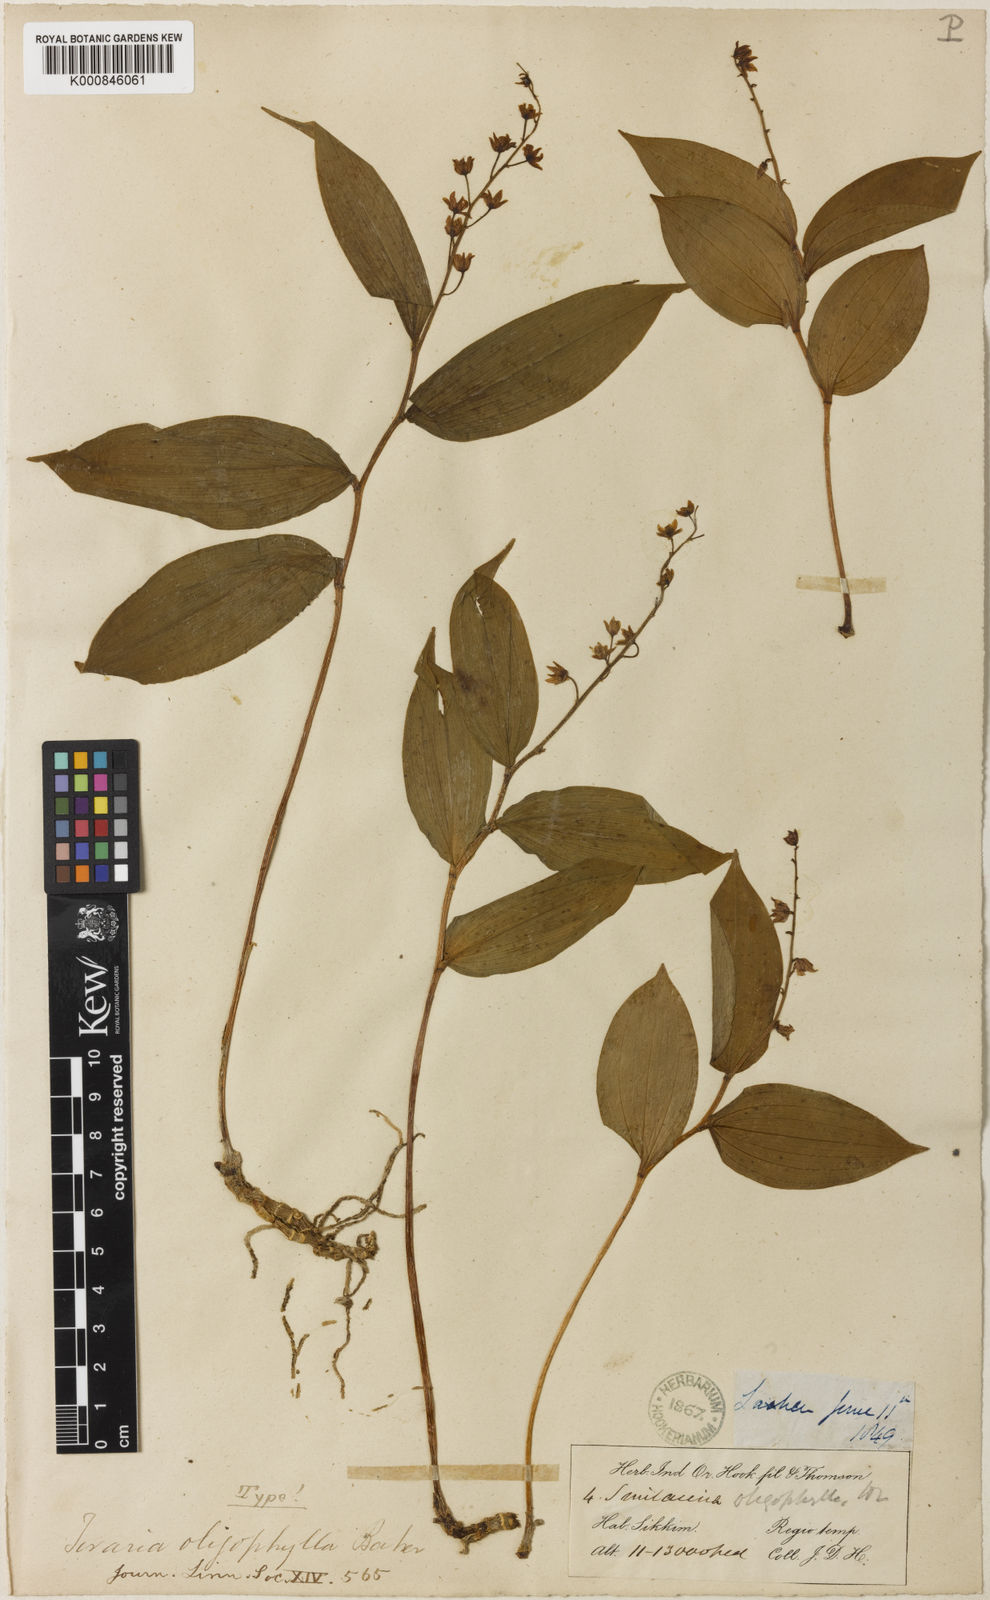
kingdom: Plantae
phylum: Tracheophyta
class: Liliopsida
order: Asparagales
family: Asparagaceae
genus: Maianthemum
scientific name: Maianthemum purpureum
